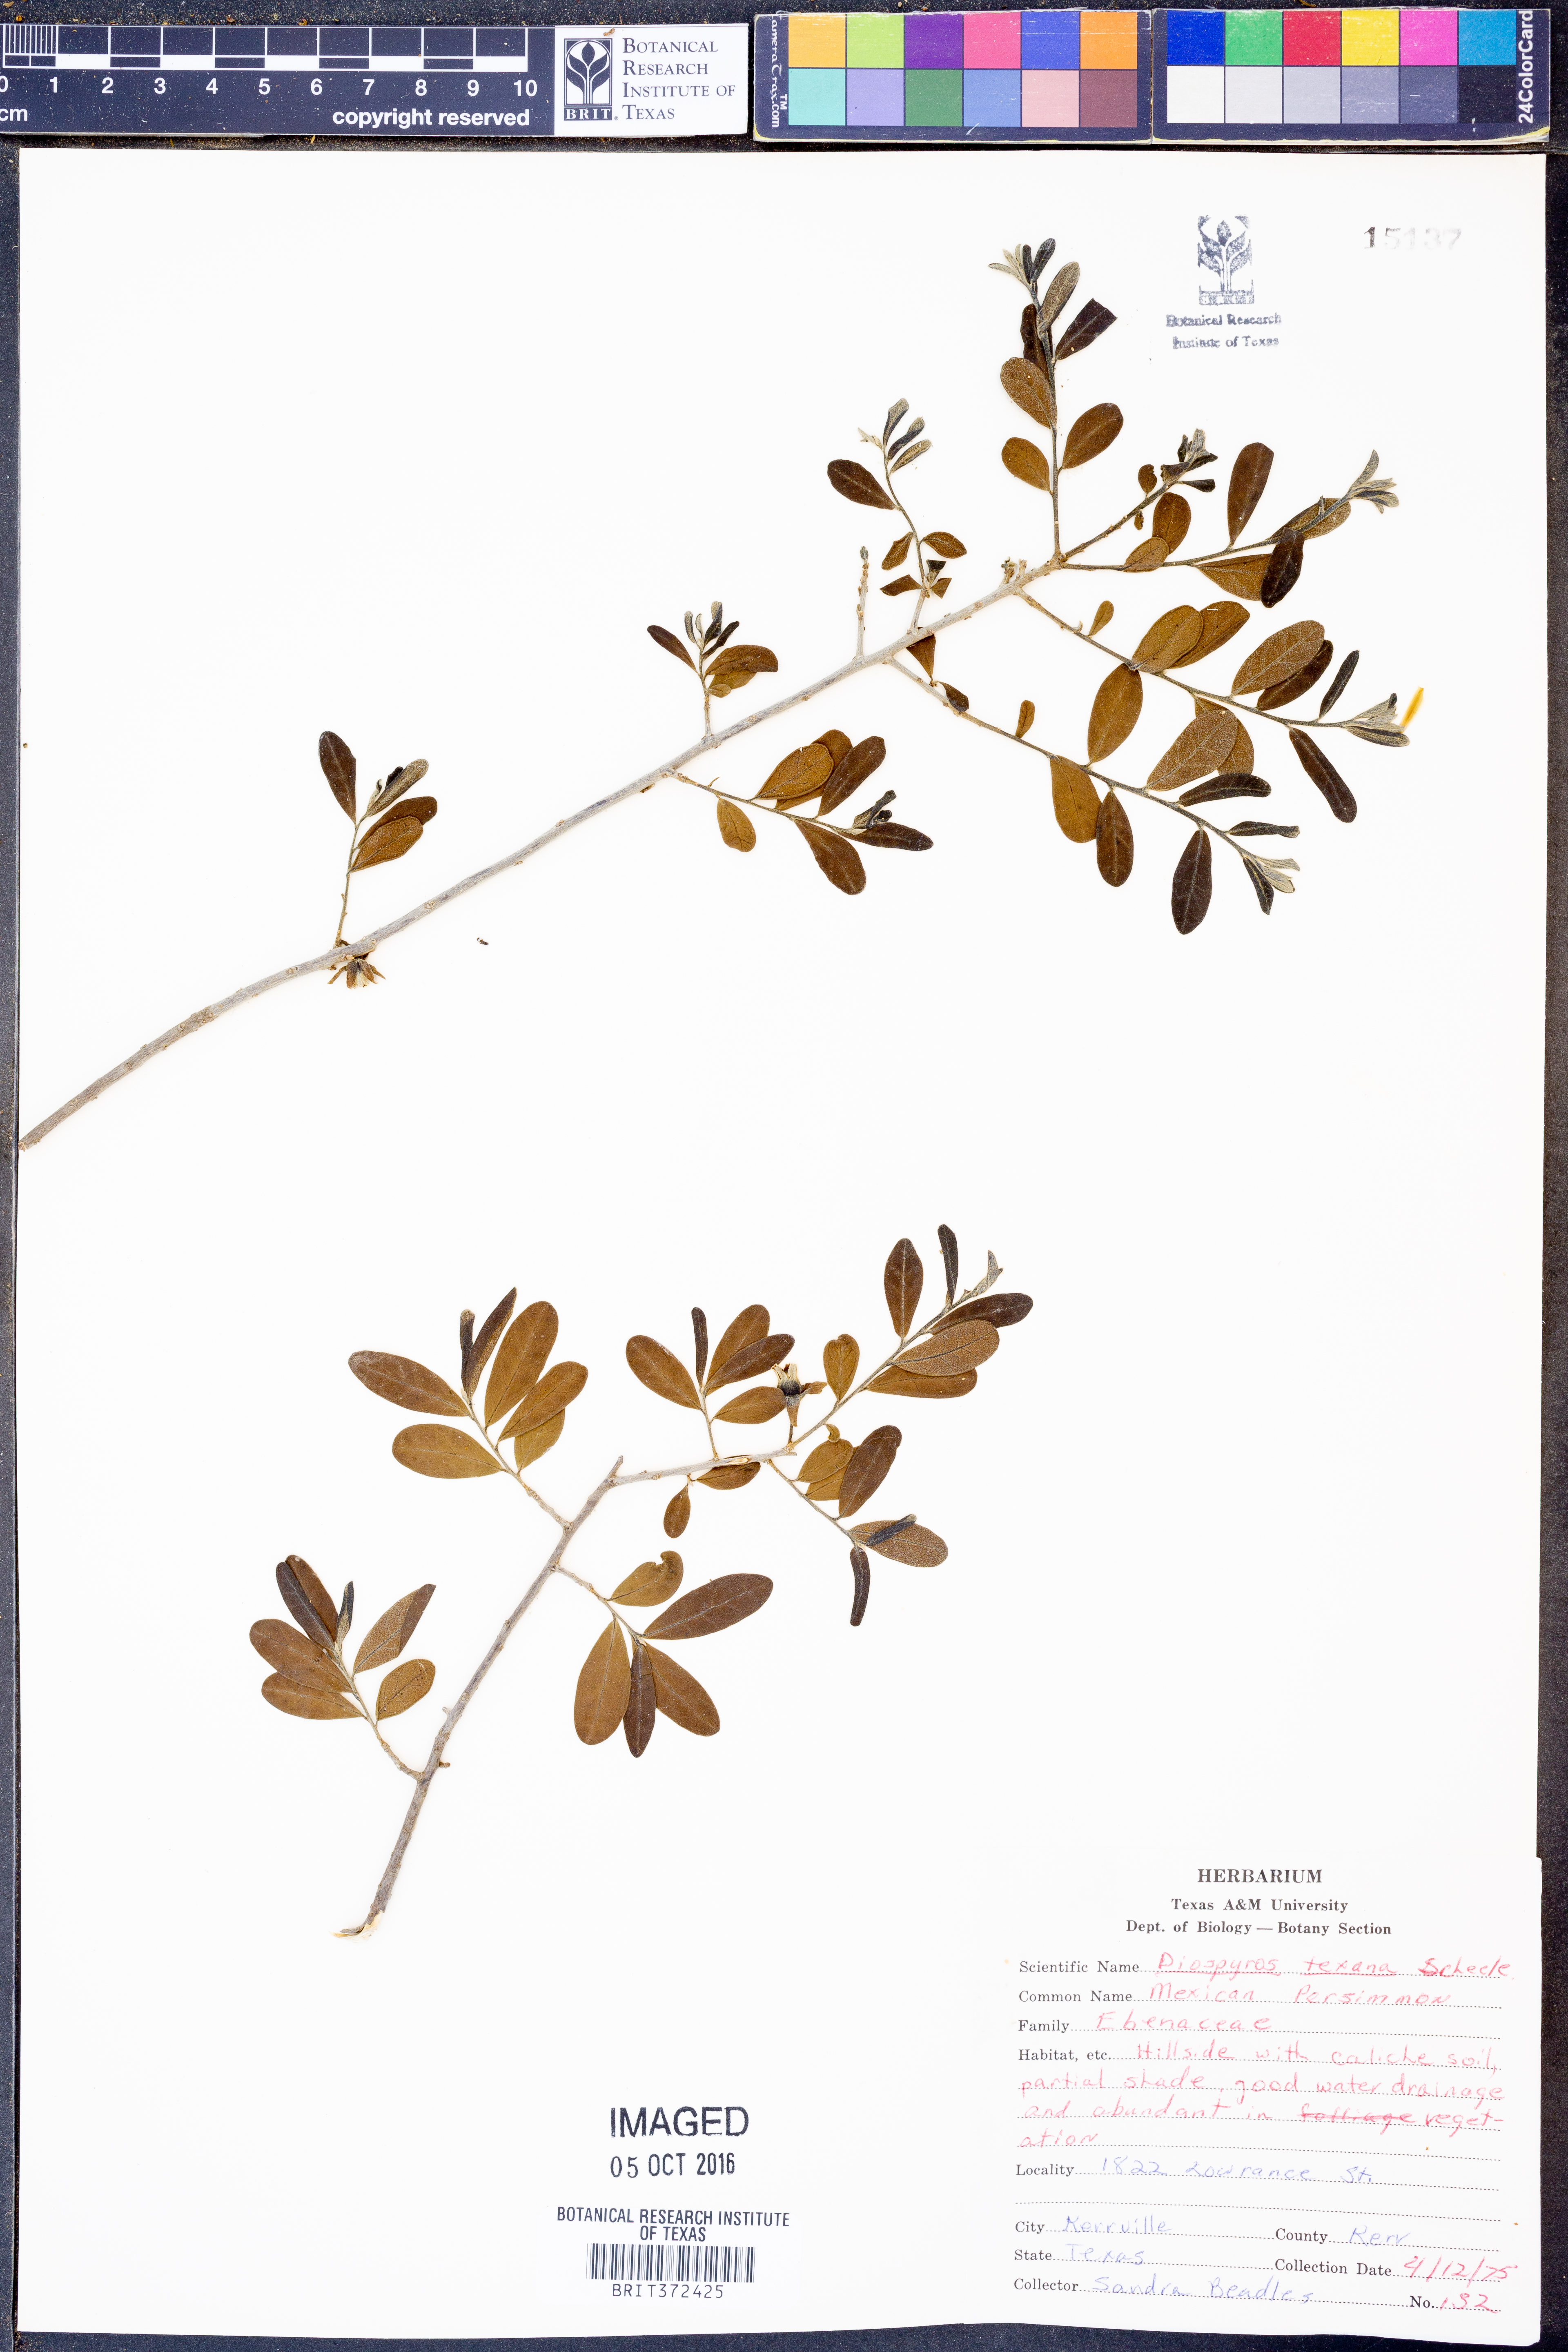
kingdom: Plantae
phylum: Tracheophyta
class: Magnoliopsida
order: Ericales
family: Ebenaceae
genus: Diospyros
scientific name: Diospyros texana
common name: Texas persimmon
